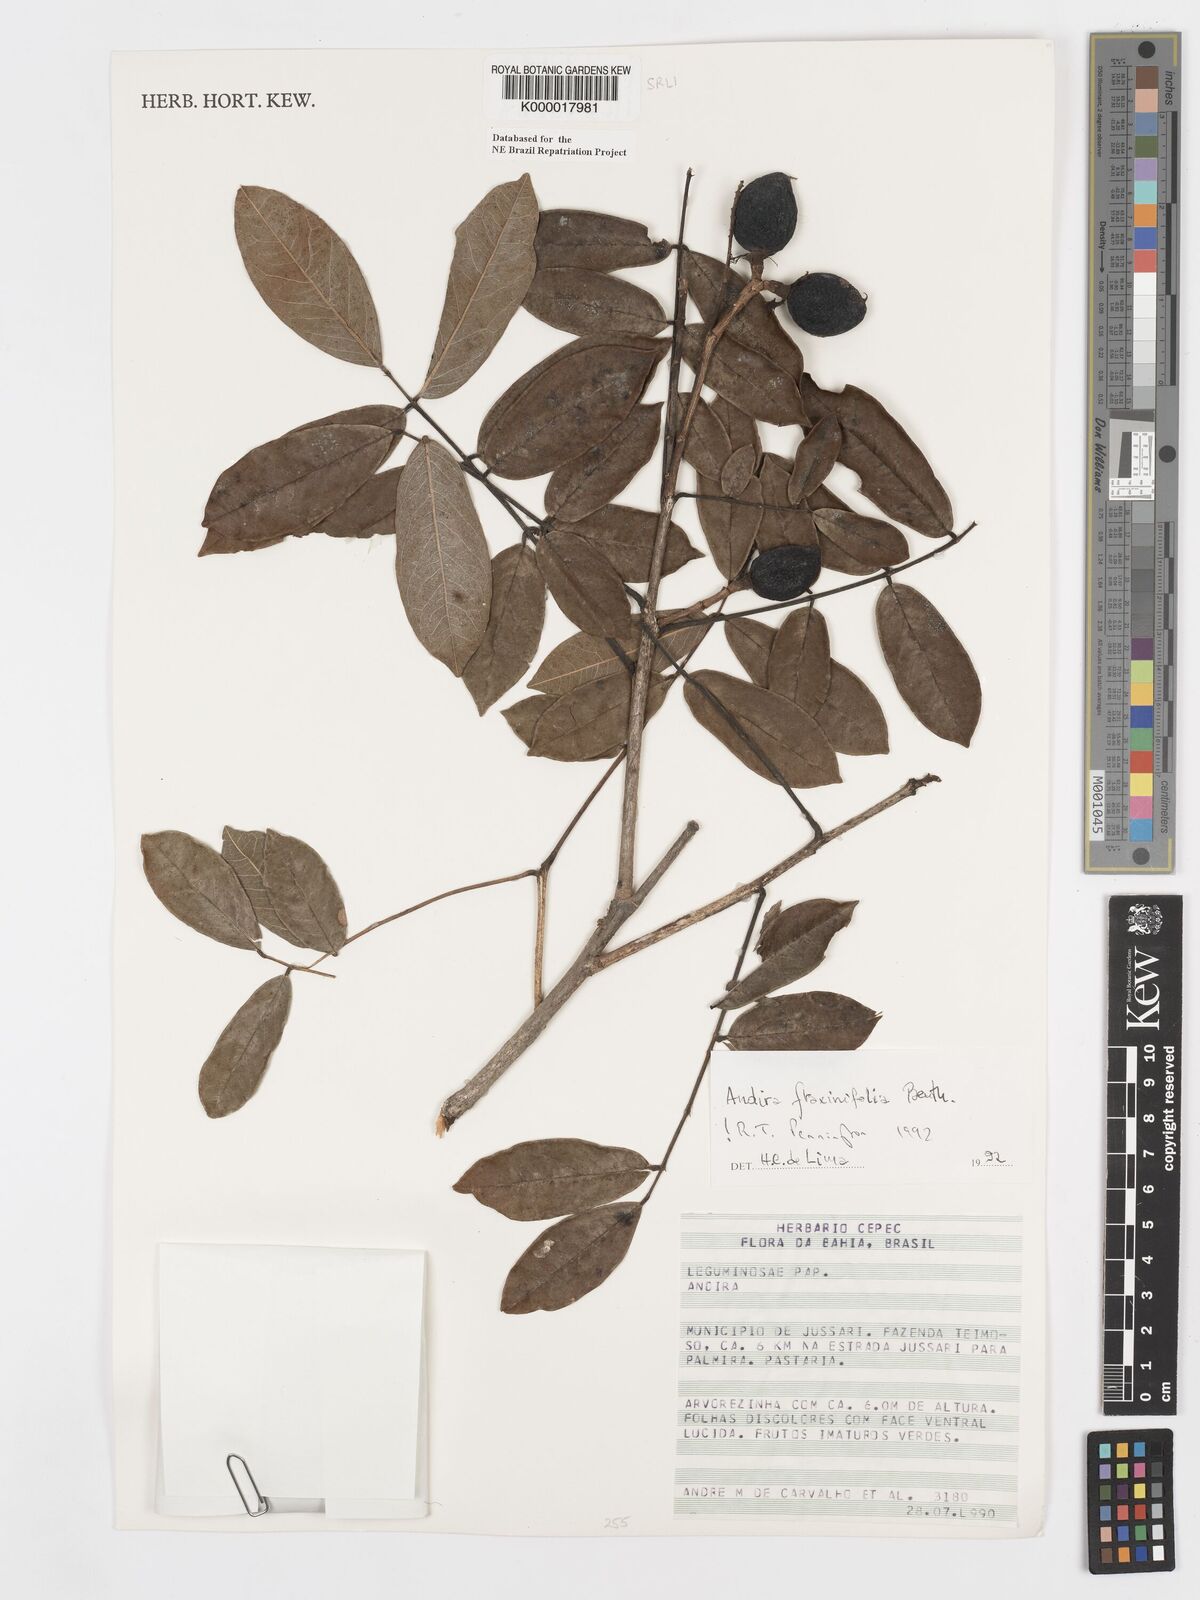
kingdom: Plantae
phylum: Tracheophyta
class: Magnoliopsida
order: Fabales
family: Fabaceae
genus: Andira
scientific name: Andira fraxinifolia
